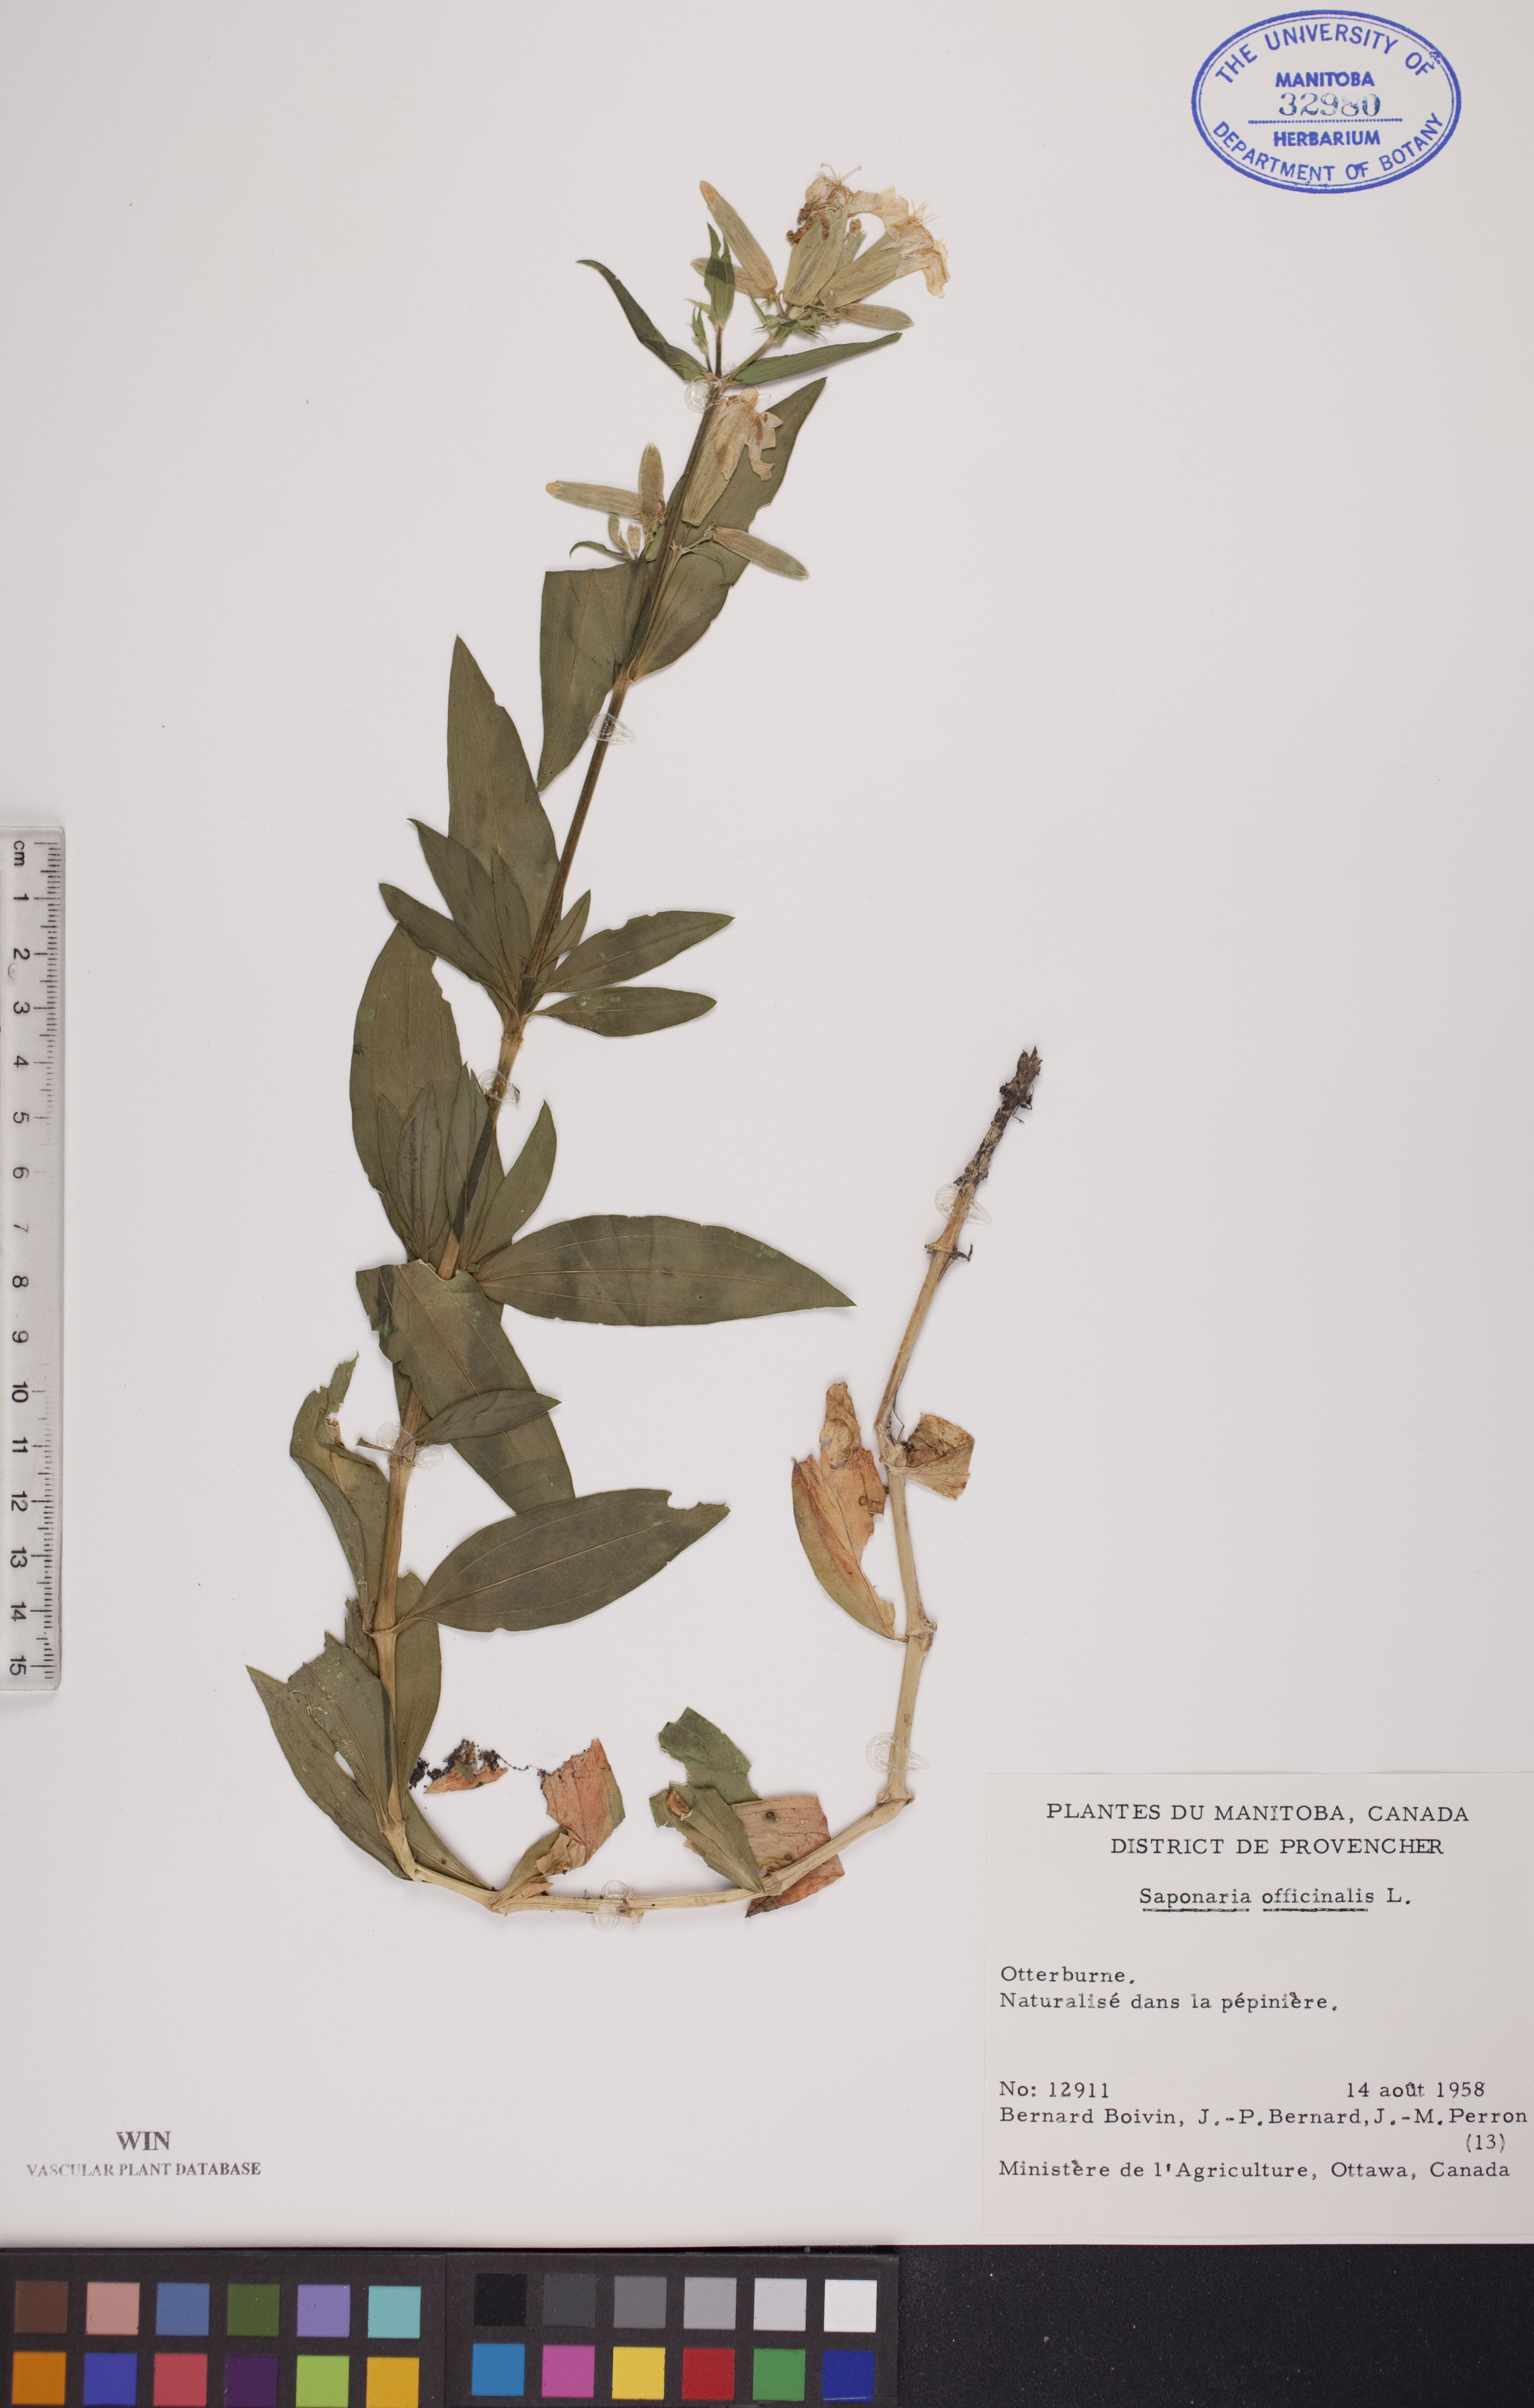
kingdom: Plantae
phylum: Tracheophyta
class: Magnoliopsida
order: Caryophyllales
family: Caryophyllaceae
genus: Saponaria
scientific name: Saponaria officinalis
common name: Soapwort
